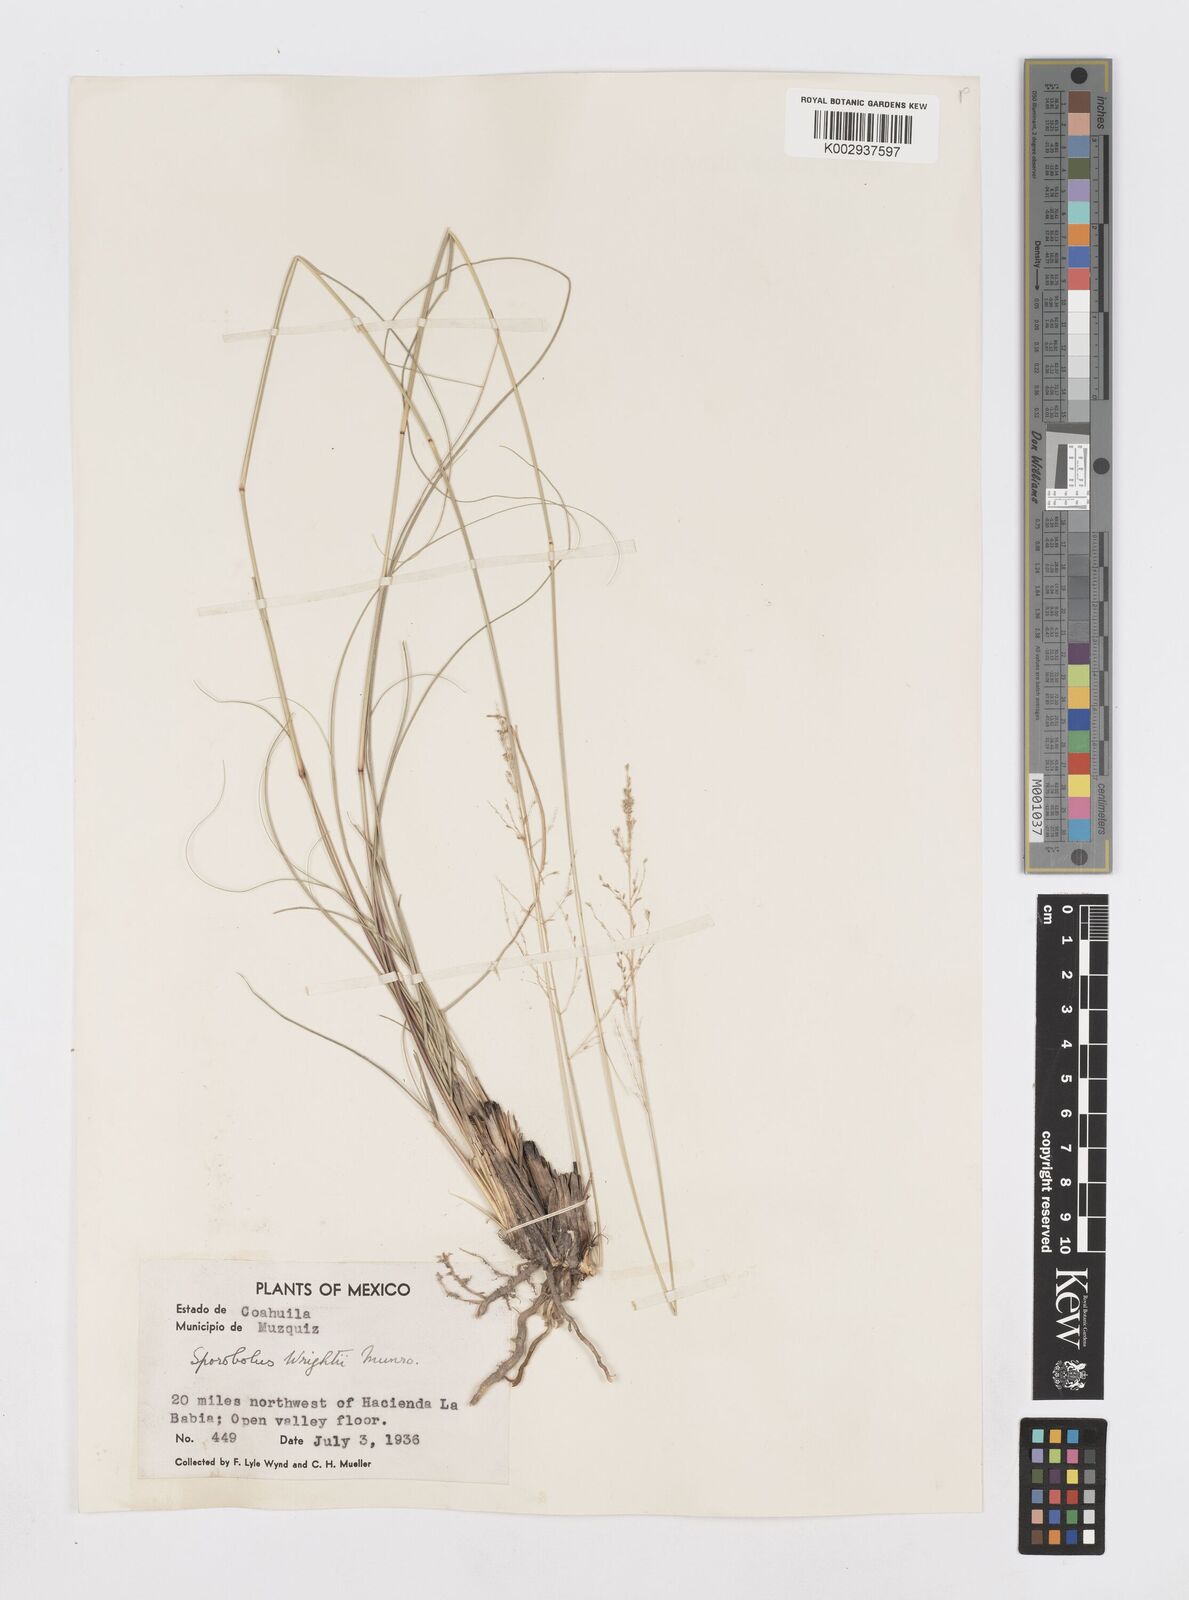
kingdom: Plantae
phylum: Tracheophyta
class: Liliopsida
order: Poales
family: Poaceae
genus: Sporobolus
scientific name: Sporobolus wrightii
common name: Big alkali sacaton
